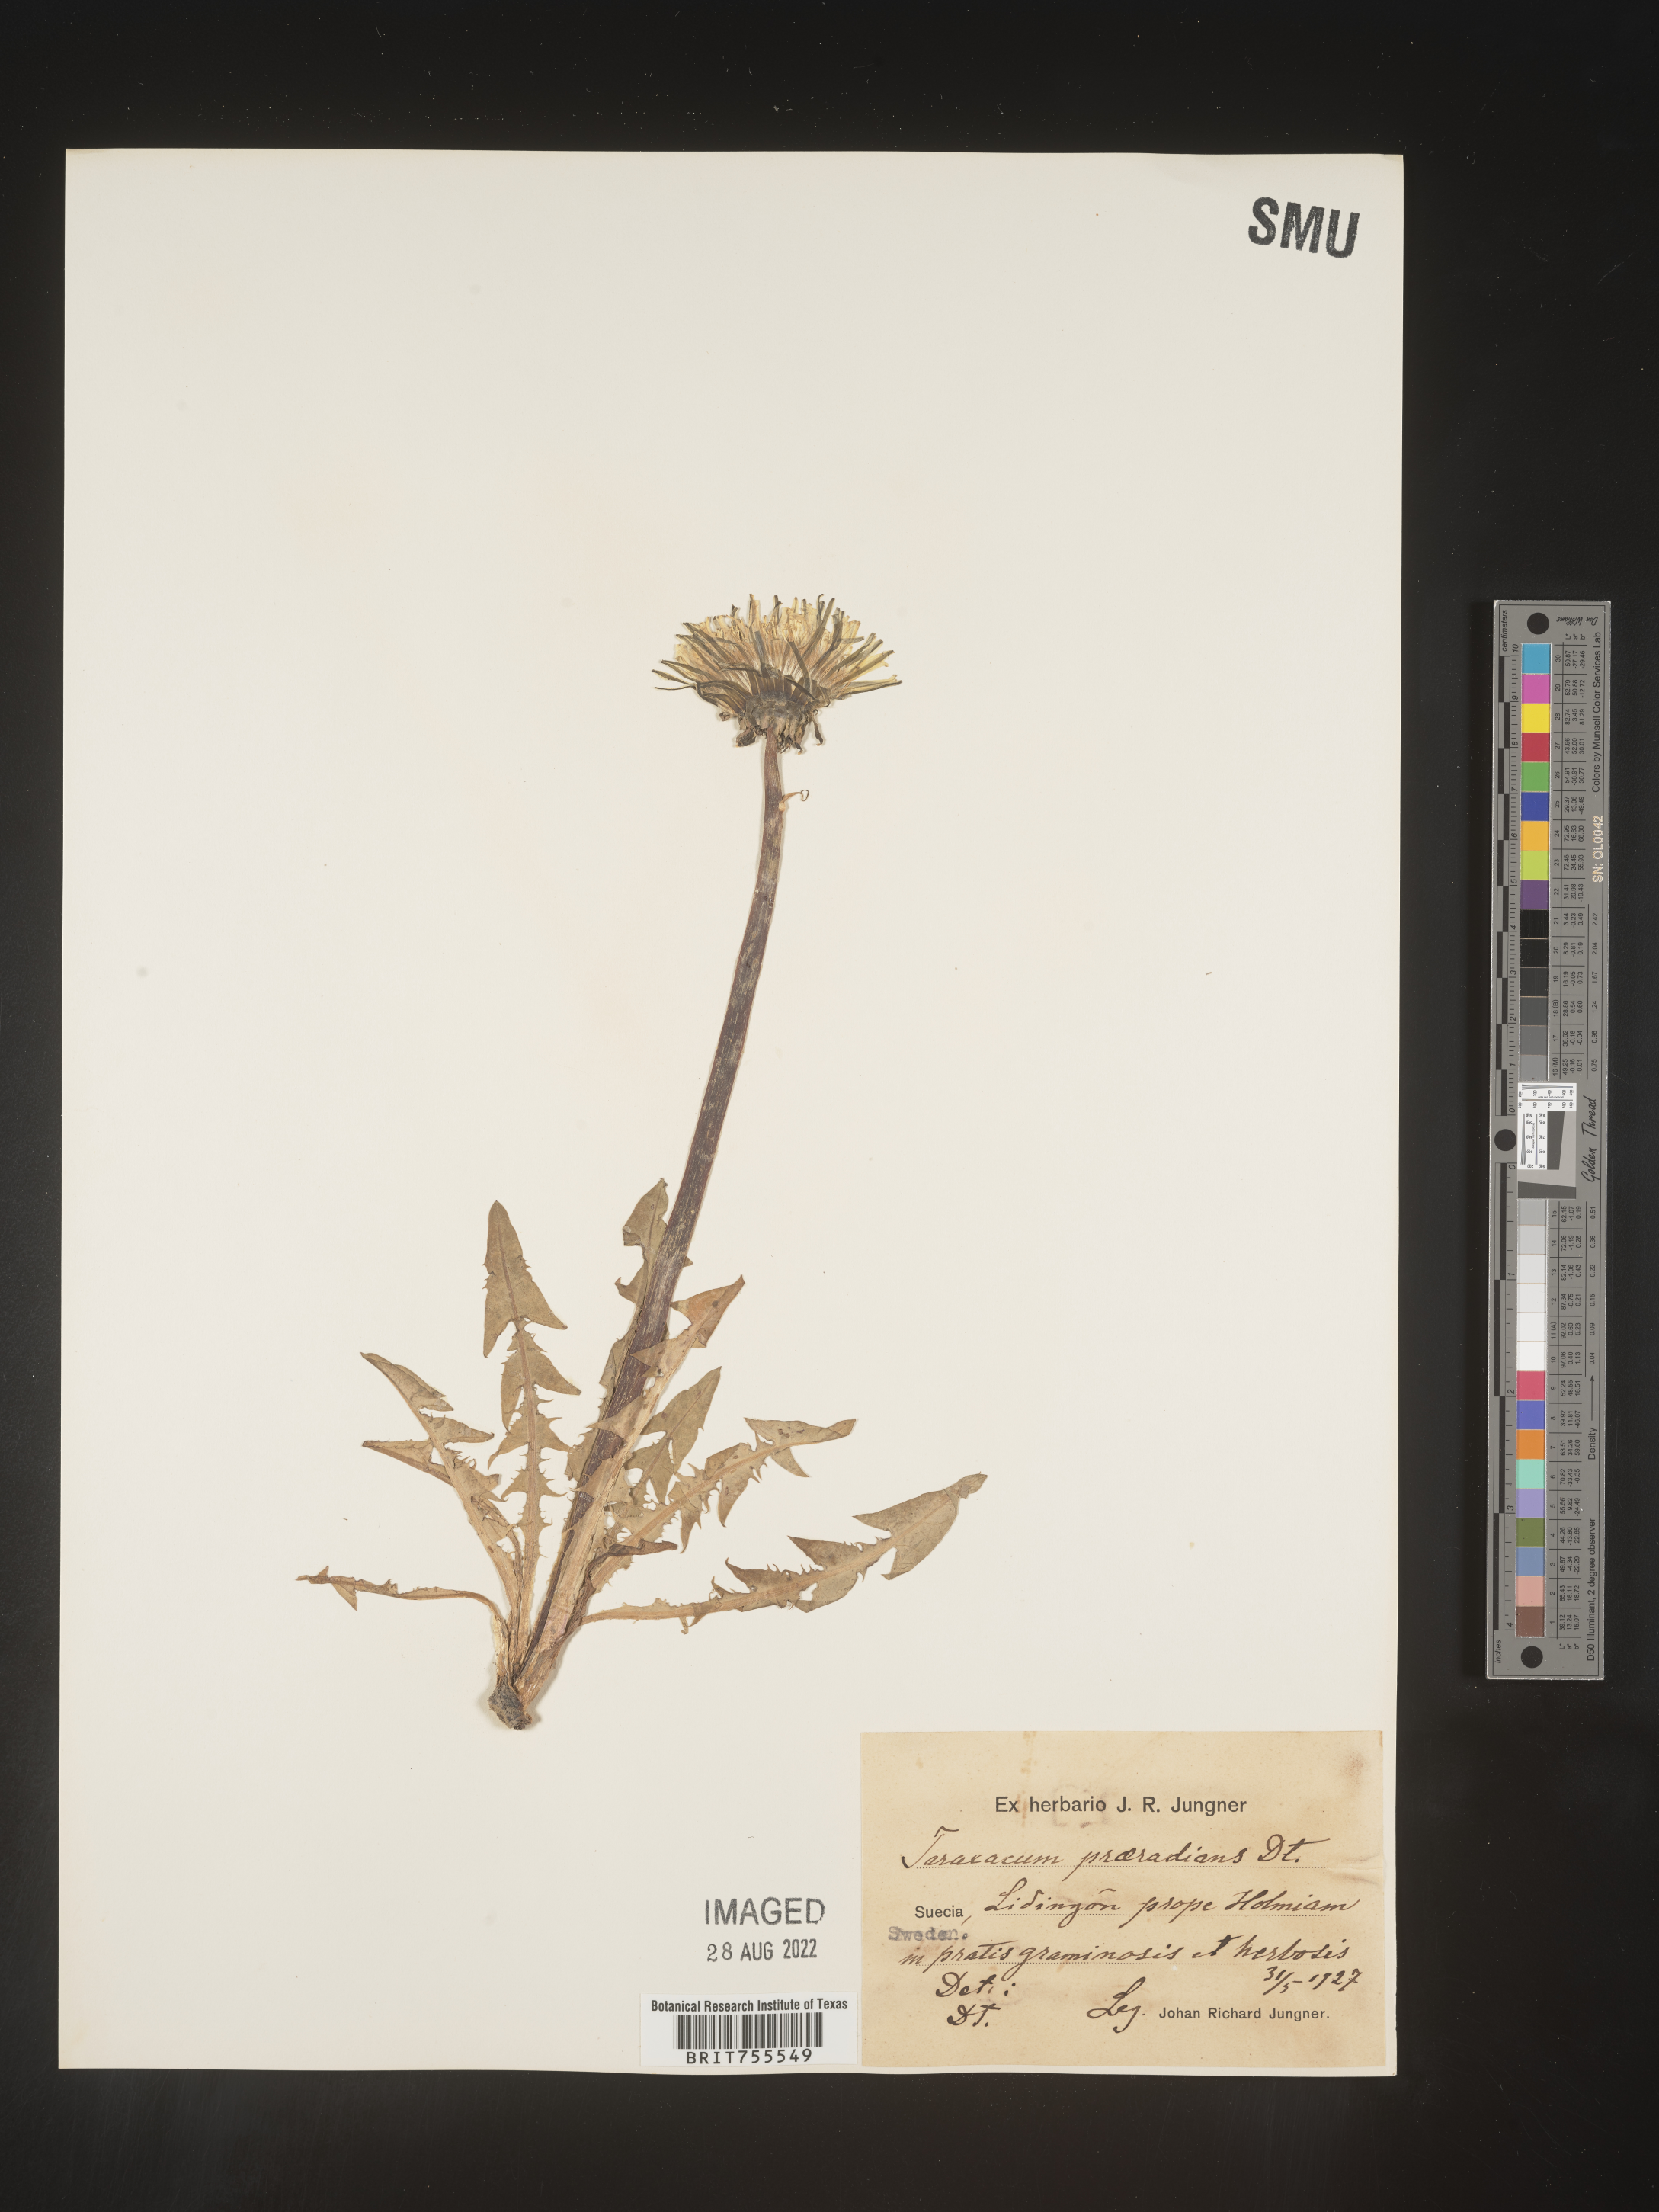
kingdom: Plantae
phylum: Tracheophyta
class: Magnoliopsida
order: Asterales
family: Asteraceae
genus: Taraxacum
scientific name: Taraxacum
